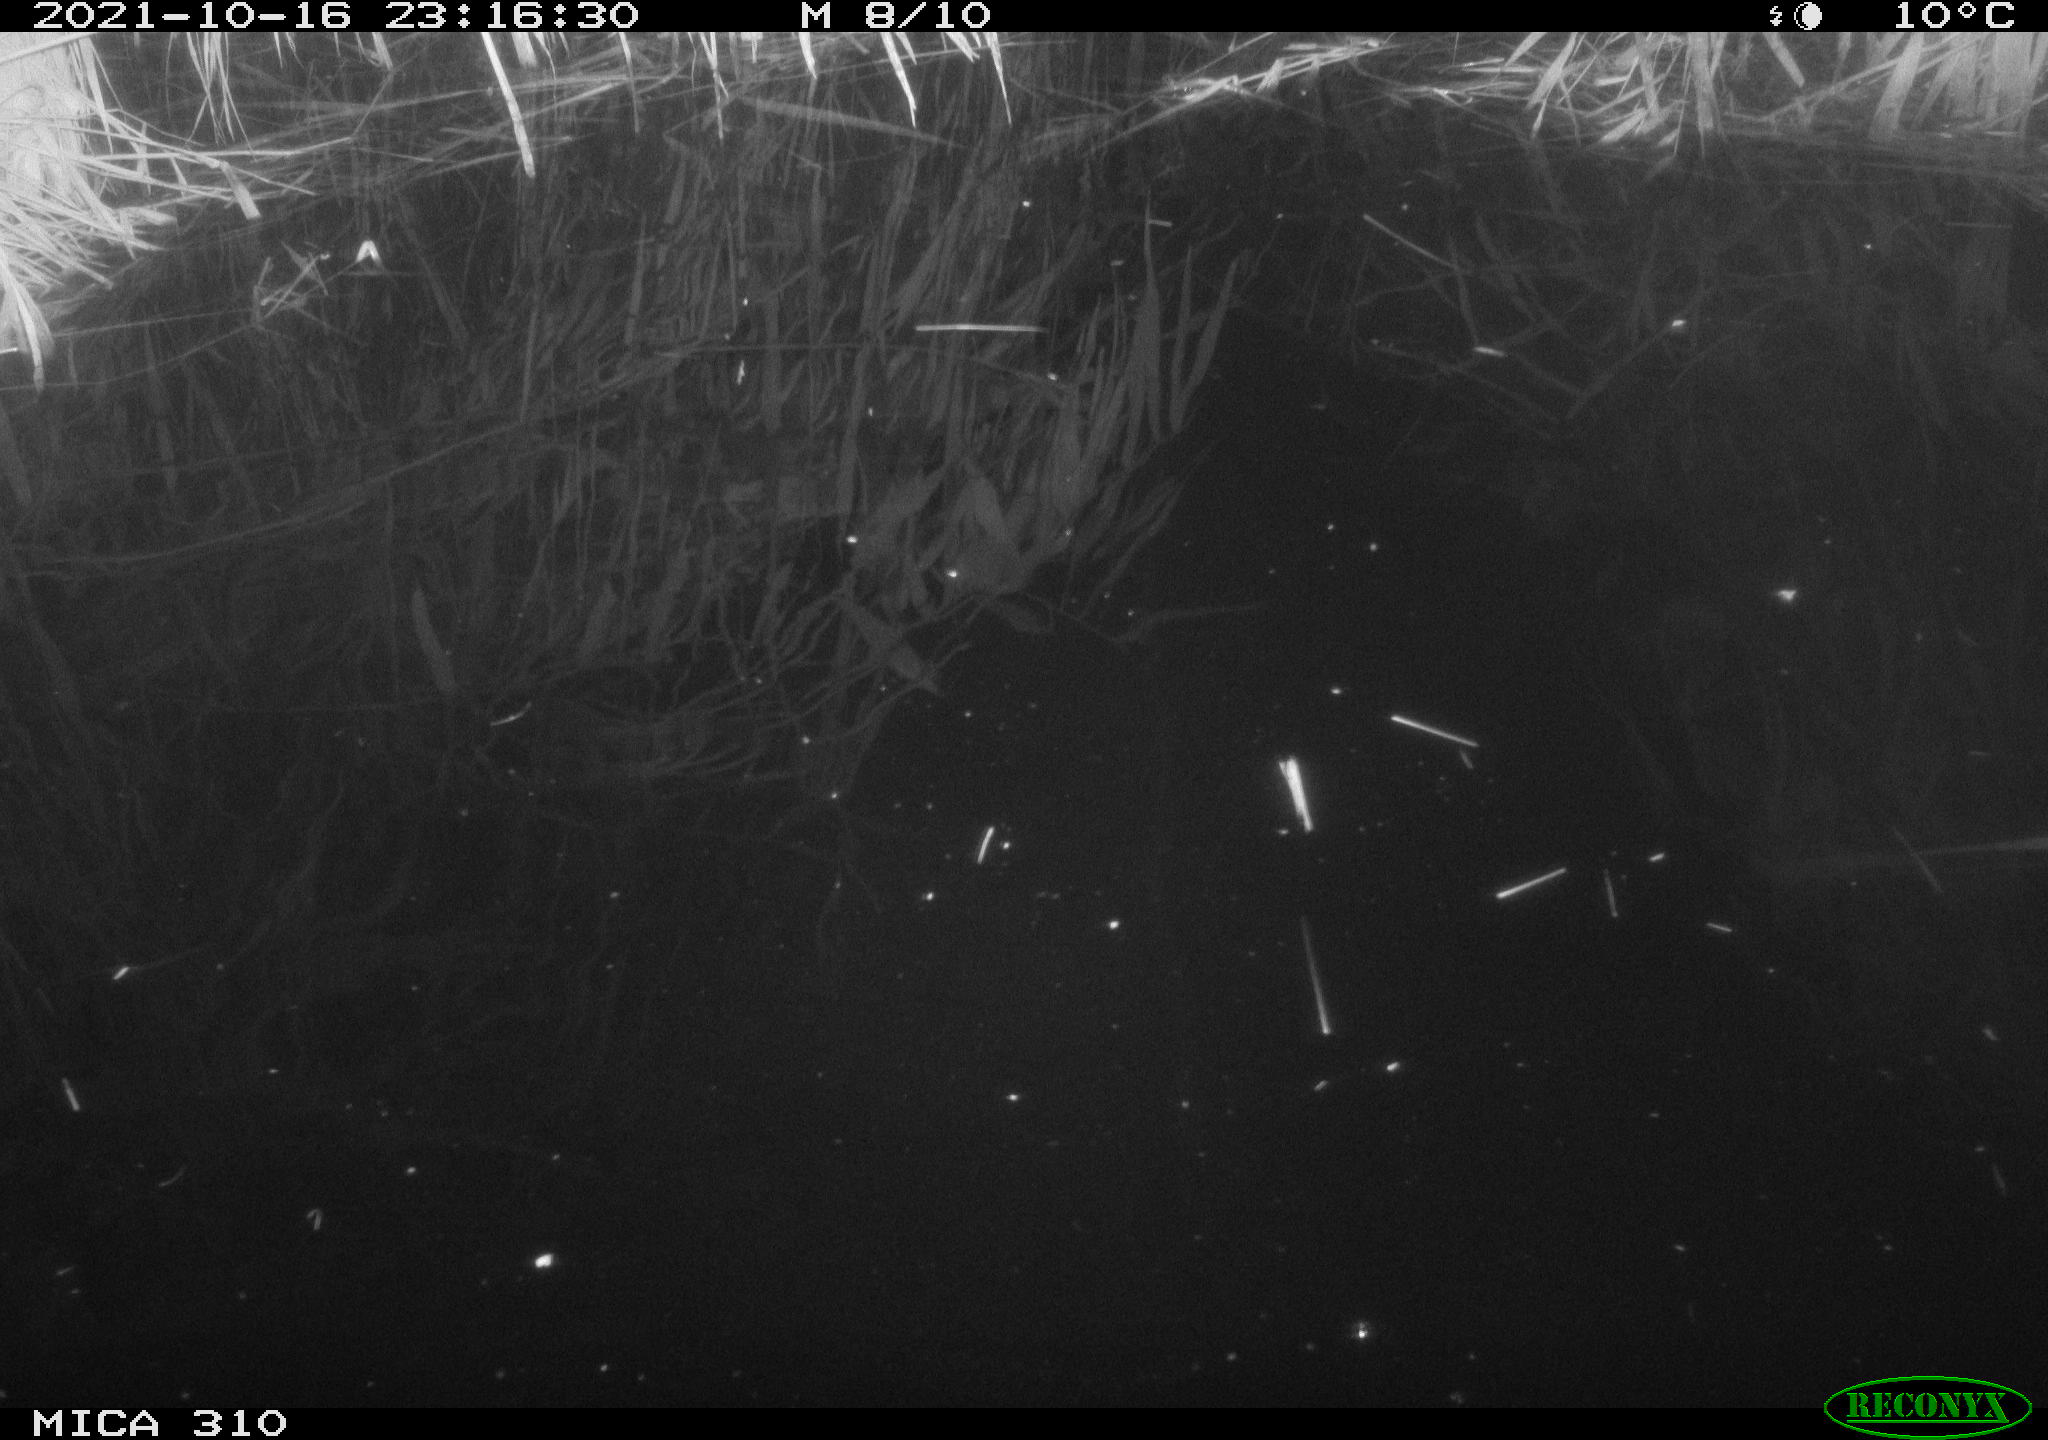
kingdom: Animalia
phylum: Chordata
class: Mammalia
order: Rodentia
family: Muridae
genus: Rattus
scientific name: Rattus norvegicus
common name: Brown rat
